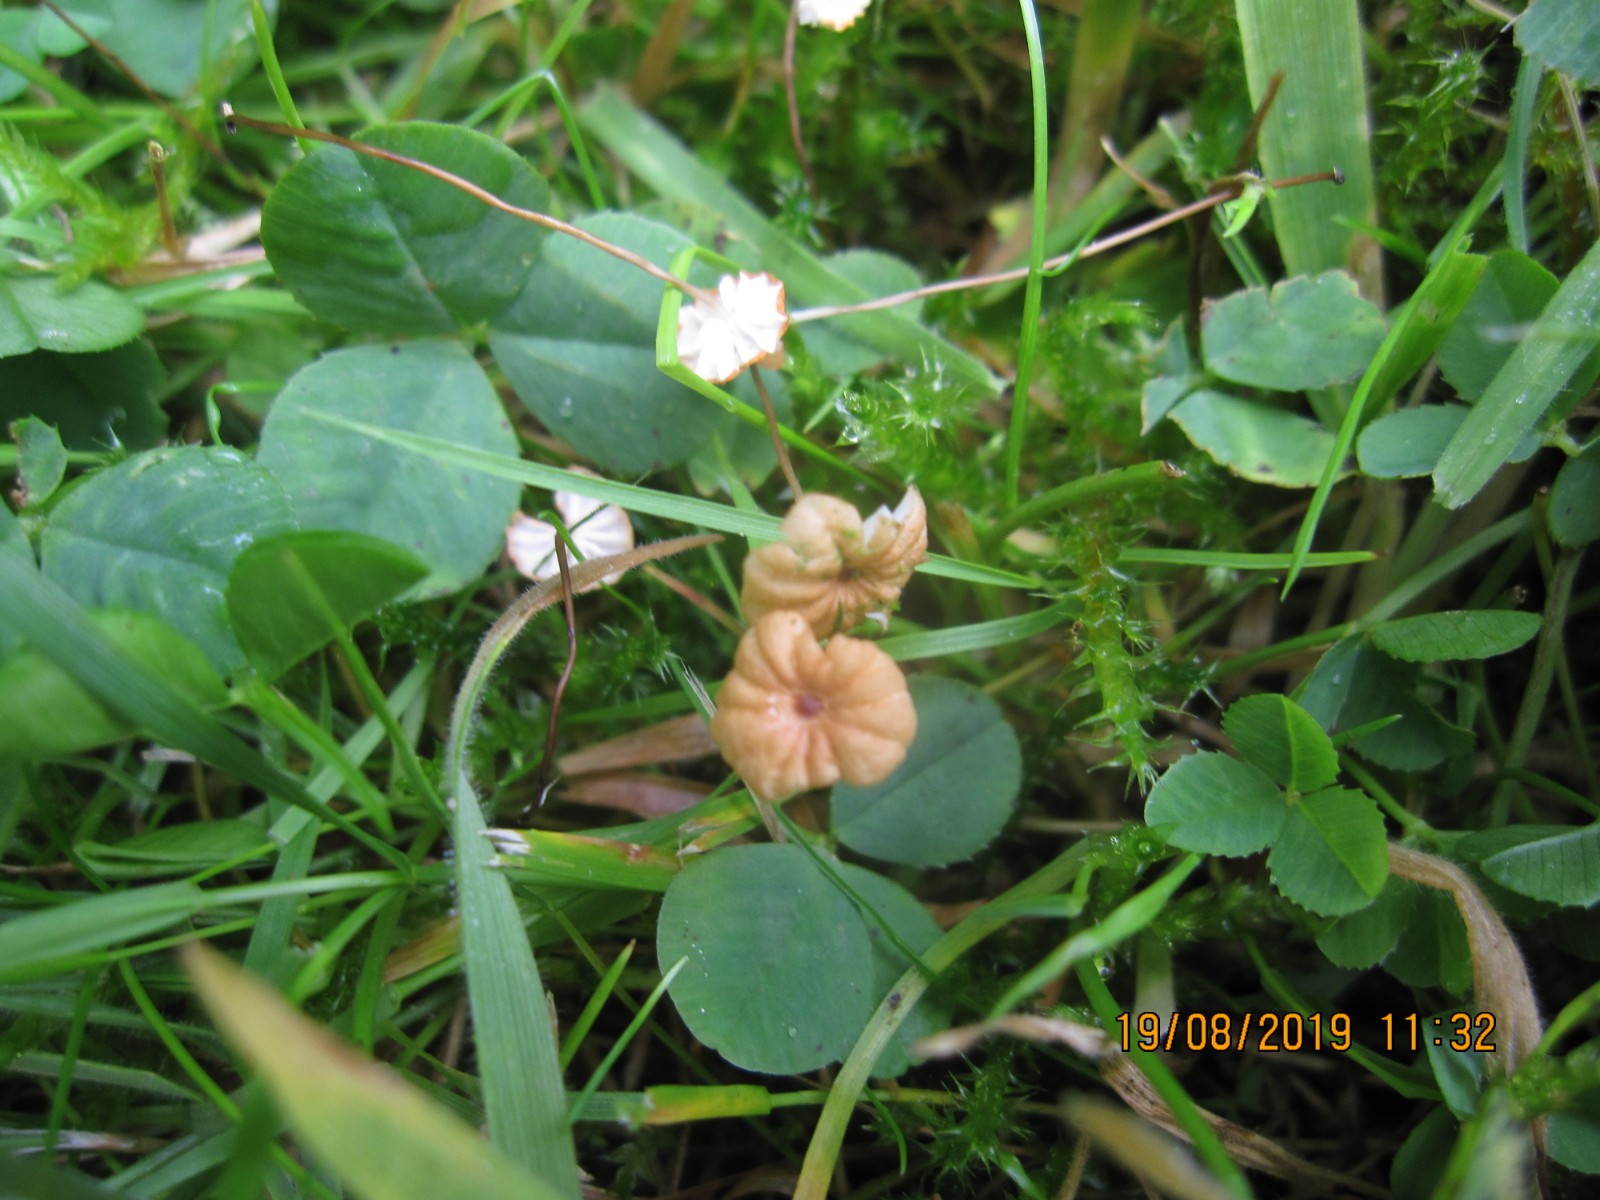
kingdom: Fungi
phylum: Basidiomycota
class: Agaricomycetes
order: Agaricales
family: Marasmiaceae
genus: Marasmius
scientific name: Marasmius curreyi
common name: teglrød bruskhat
